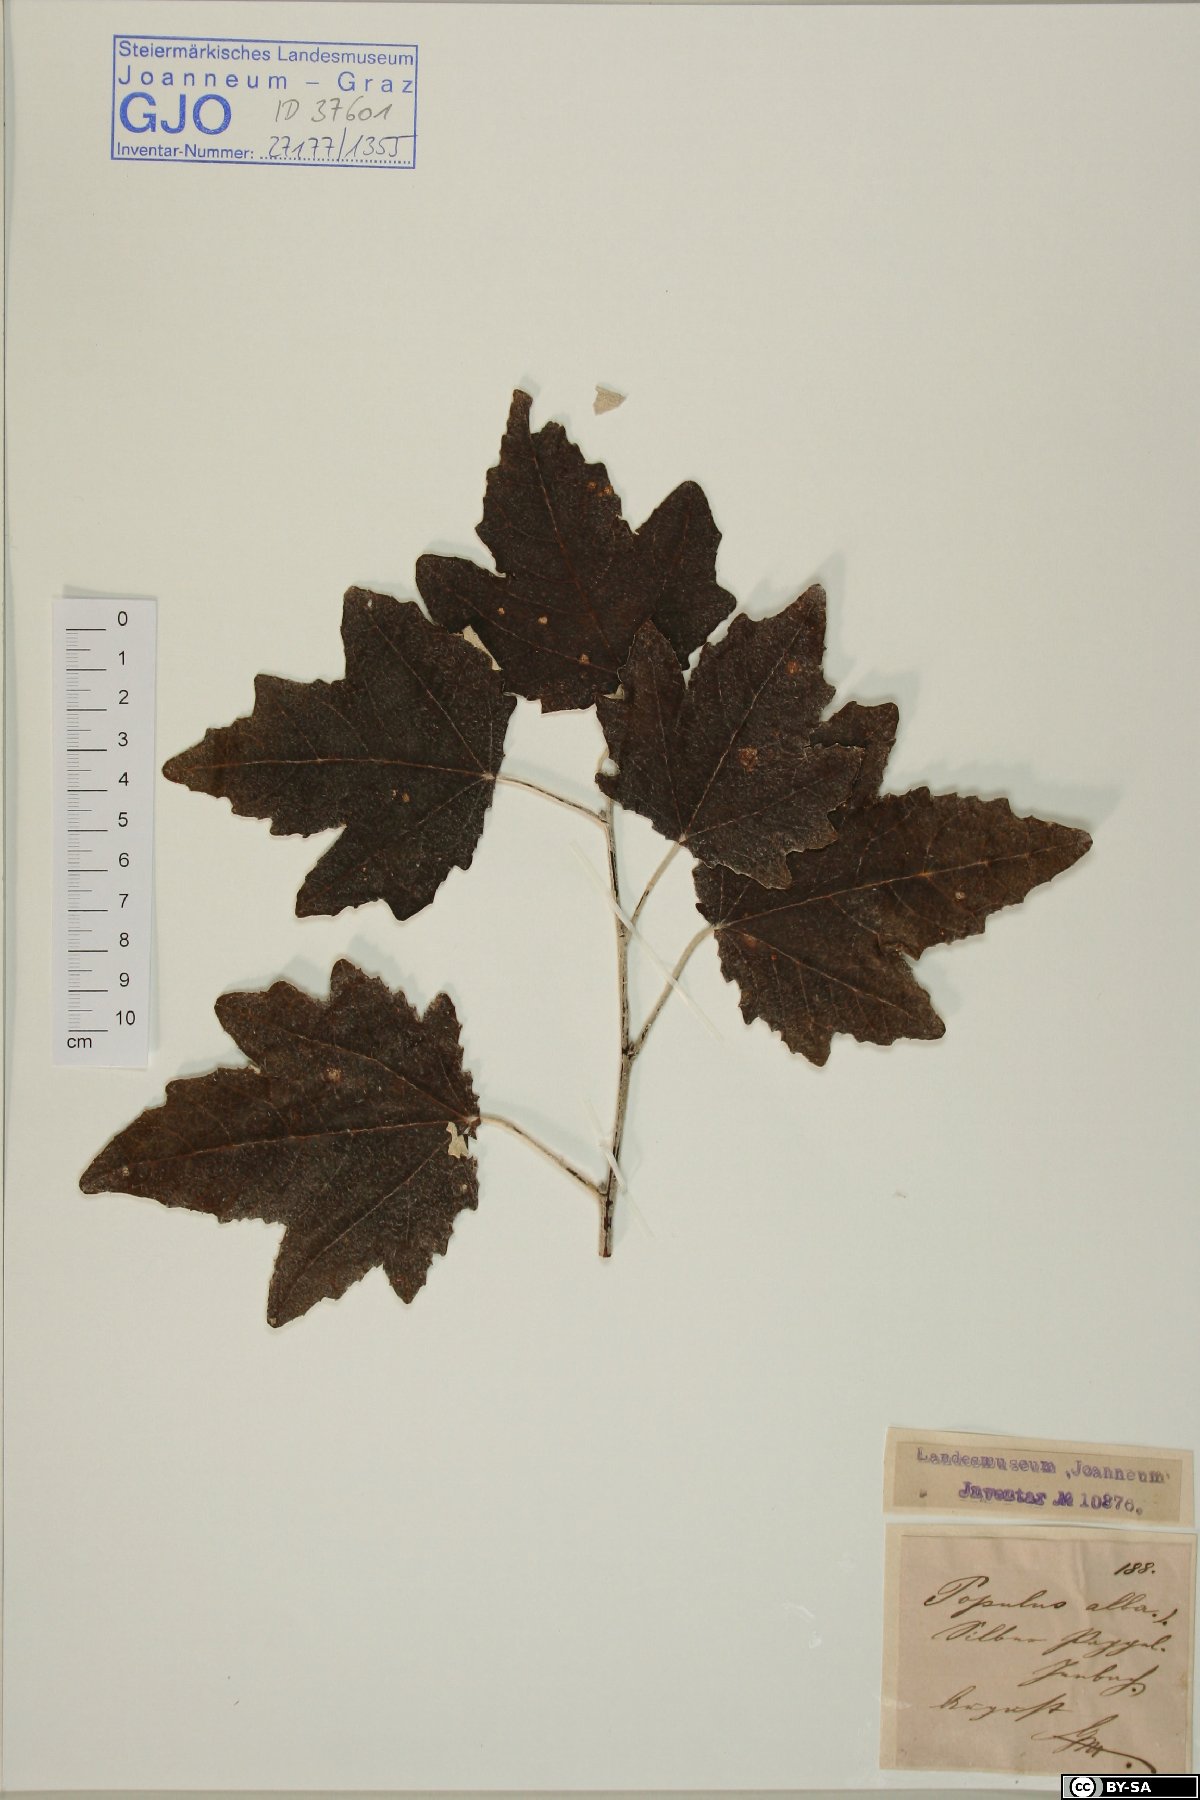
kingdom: Plantae
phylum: Tracheophyta
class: Magnoliopsida
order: Malpighiales
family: Salicaceae
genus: Populus
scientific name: Populus alba
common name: White poplar
